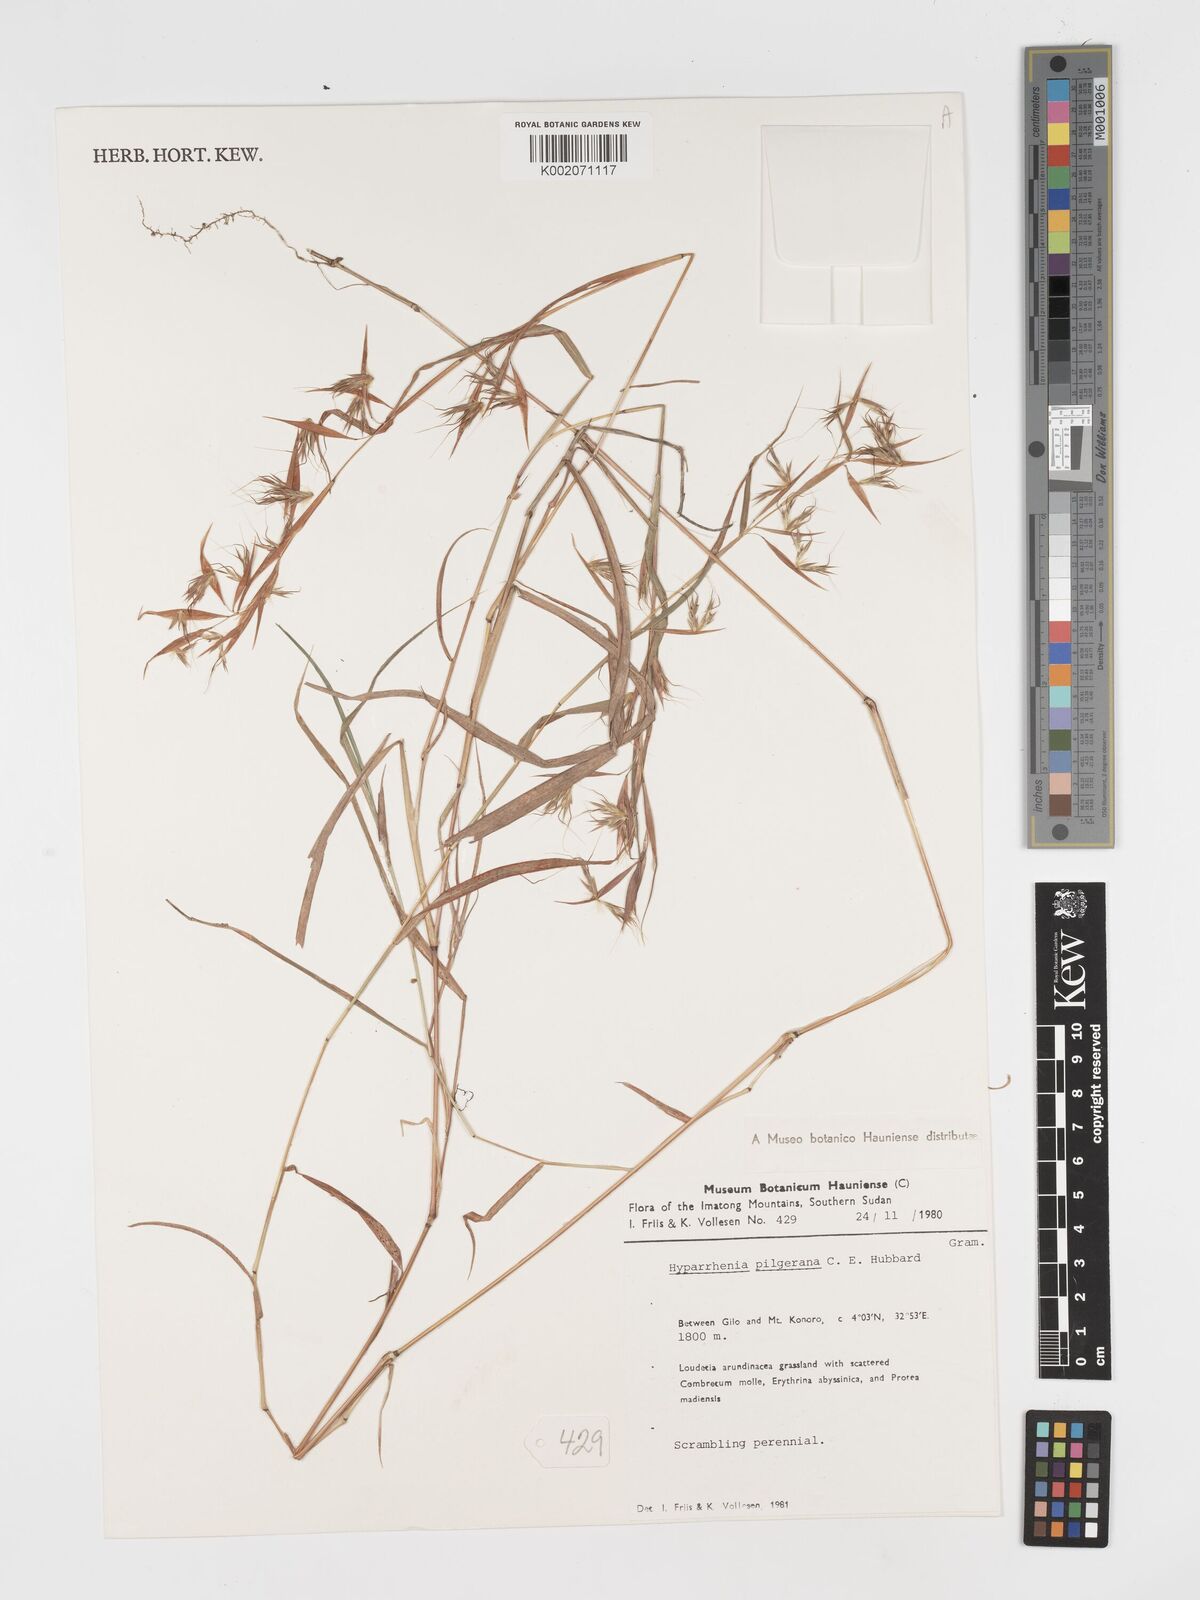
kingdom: Plantae
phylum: Tracheophyta
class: Liliopsida
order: Poales
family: Poaceae
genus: Hyparrhenia
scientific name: Hyparrhenia pilgeriana
